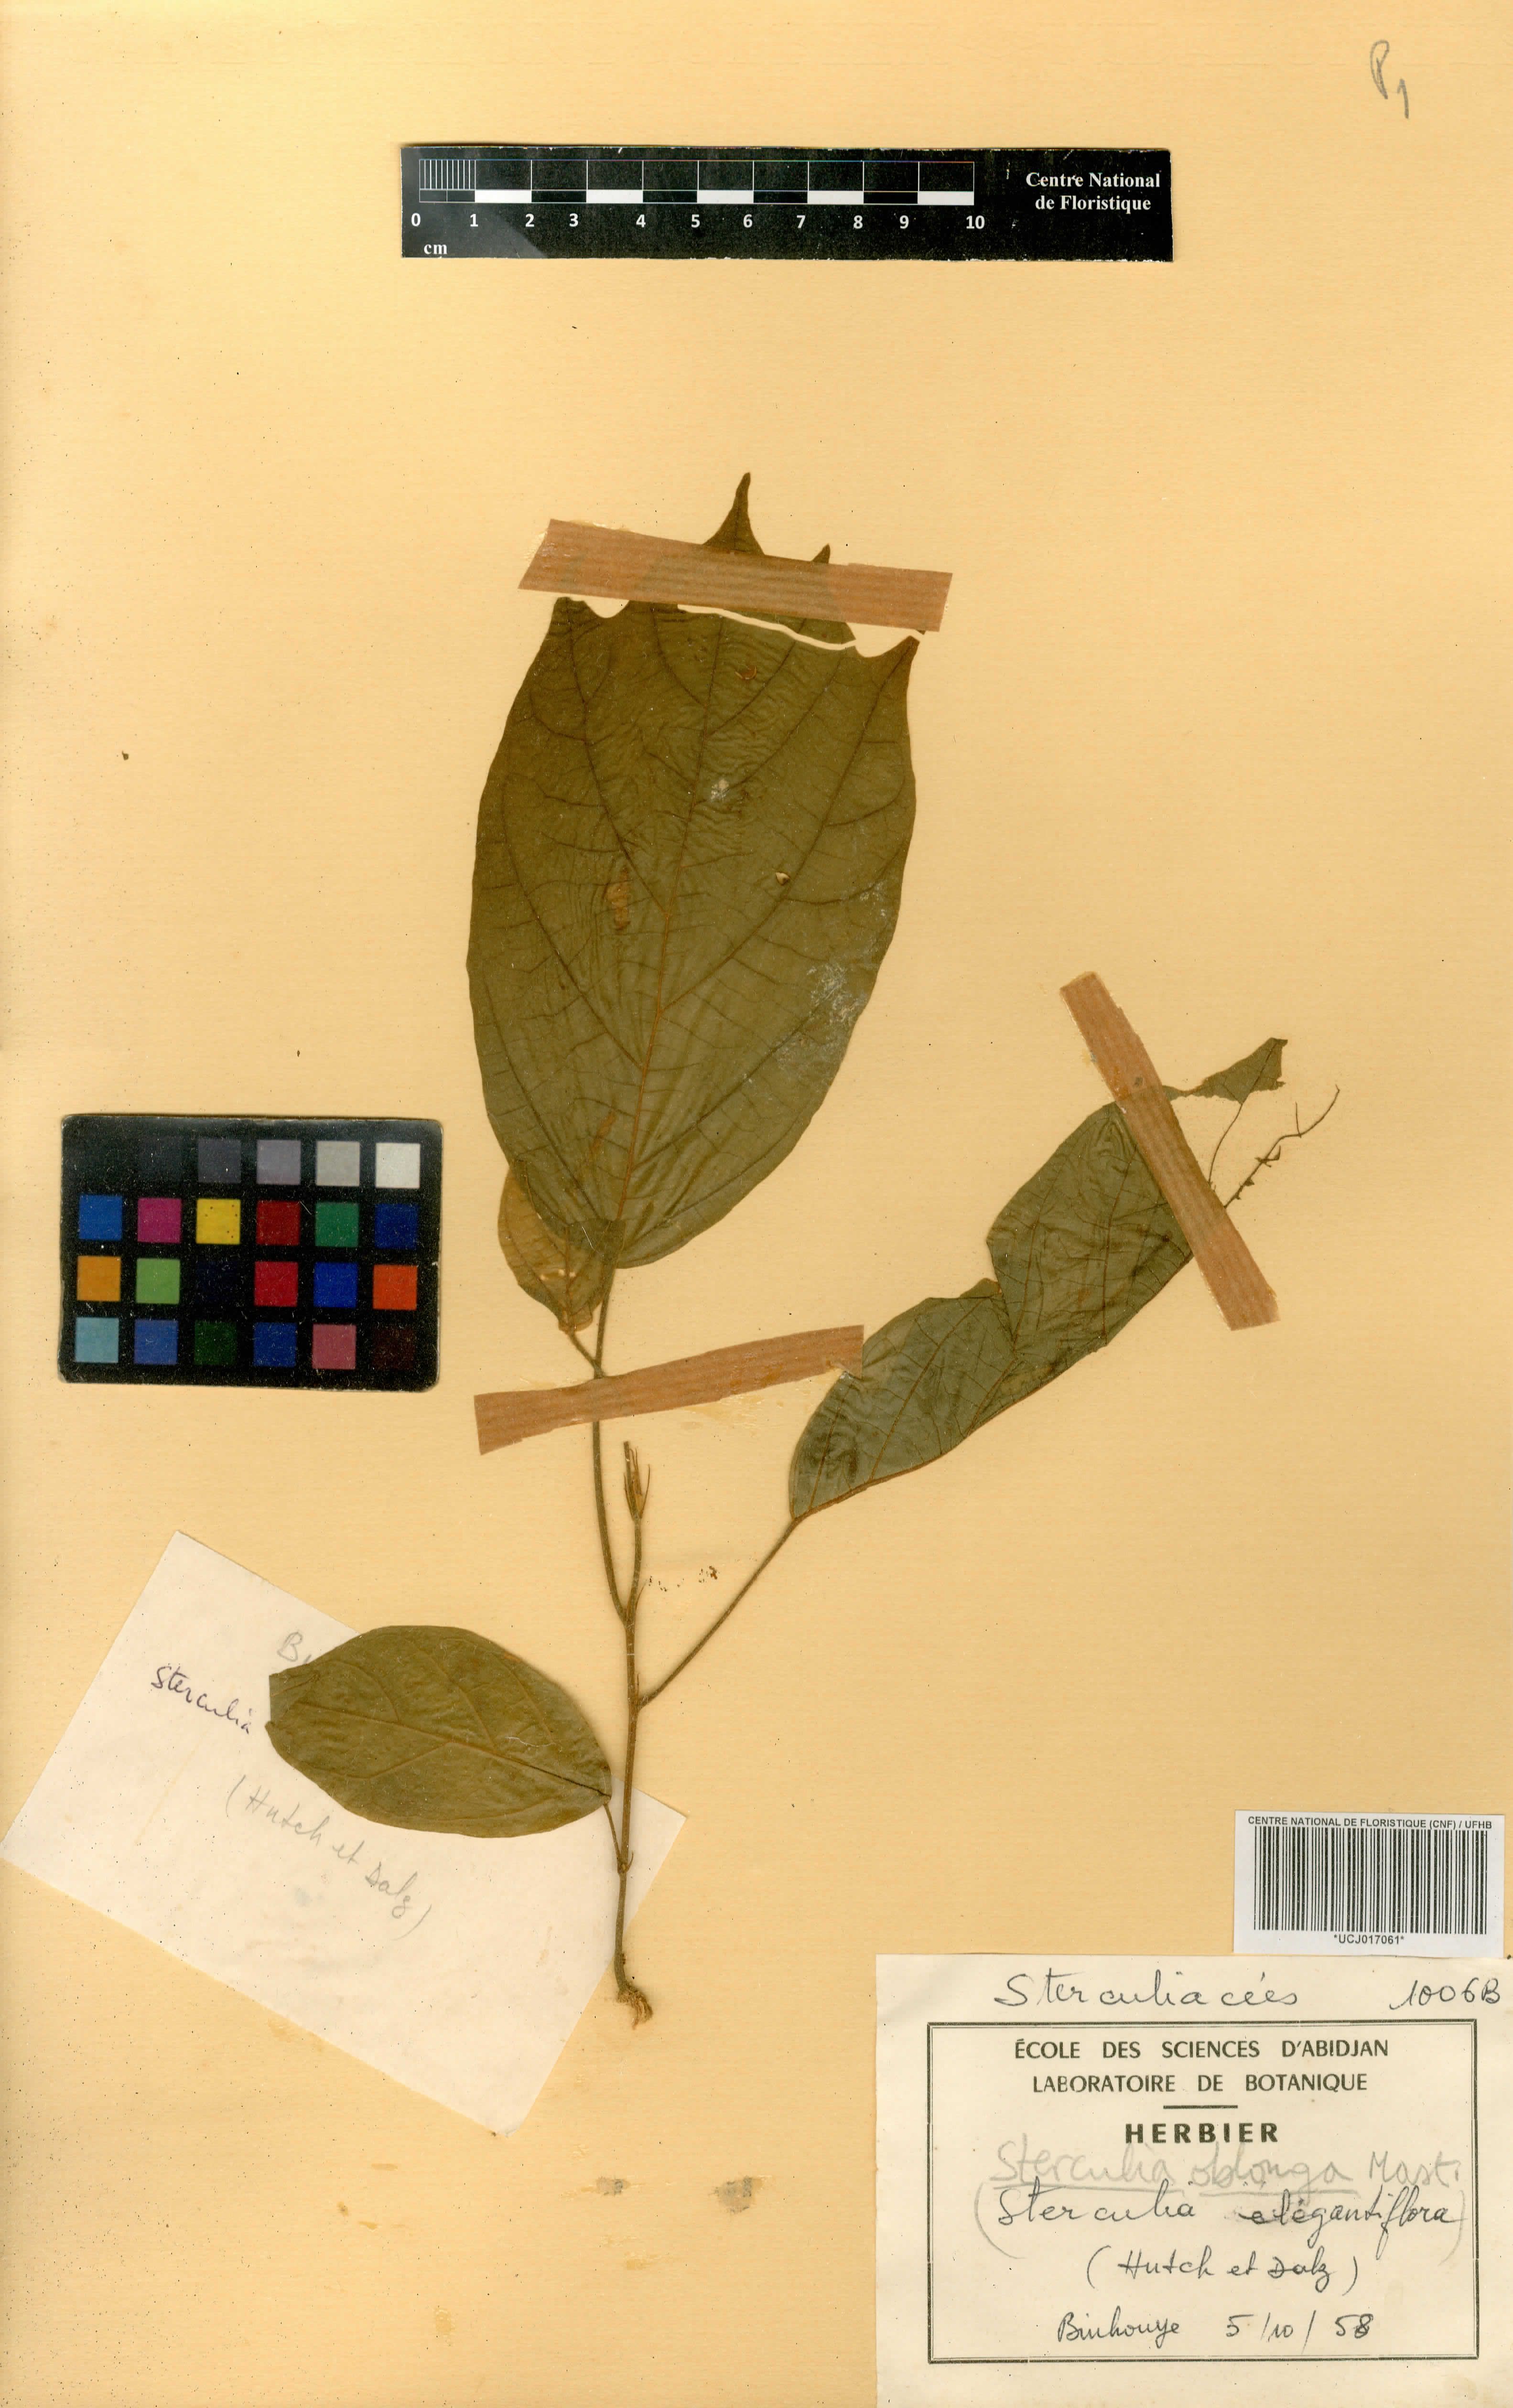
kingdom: Plantae
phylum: Tracheophyta
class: Magnoliopsida
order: Malvales
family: Malvaceae
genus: Sterculia
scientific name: Sterculia oblonga
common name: Yellow sterculia
